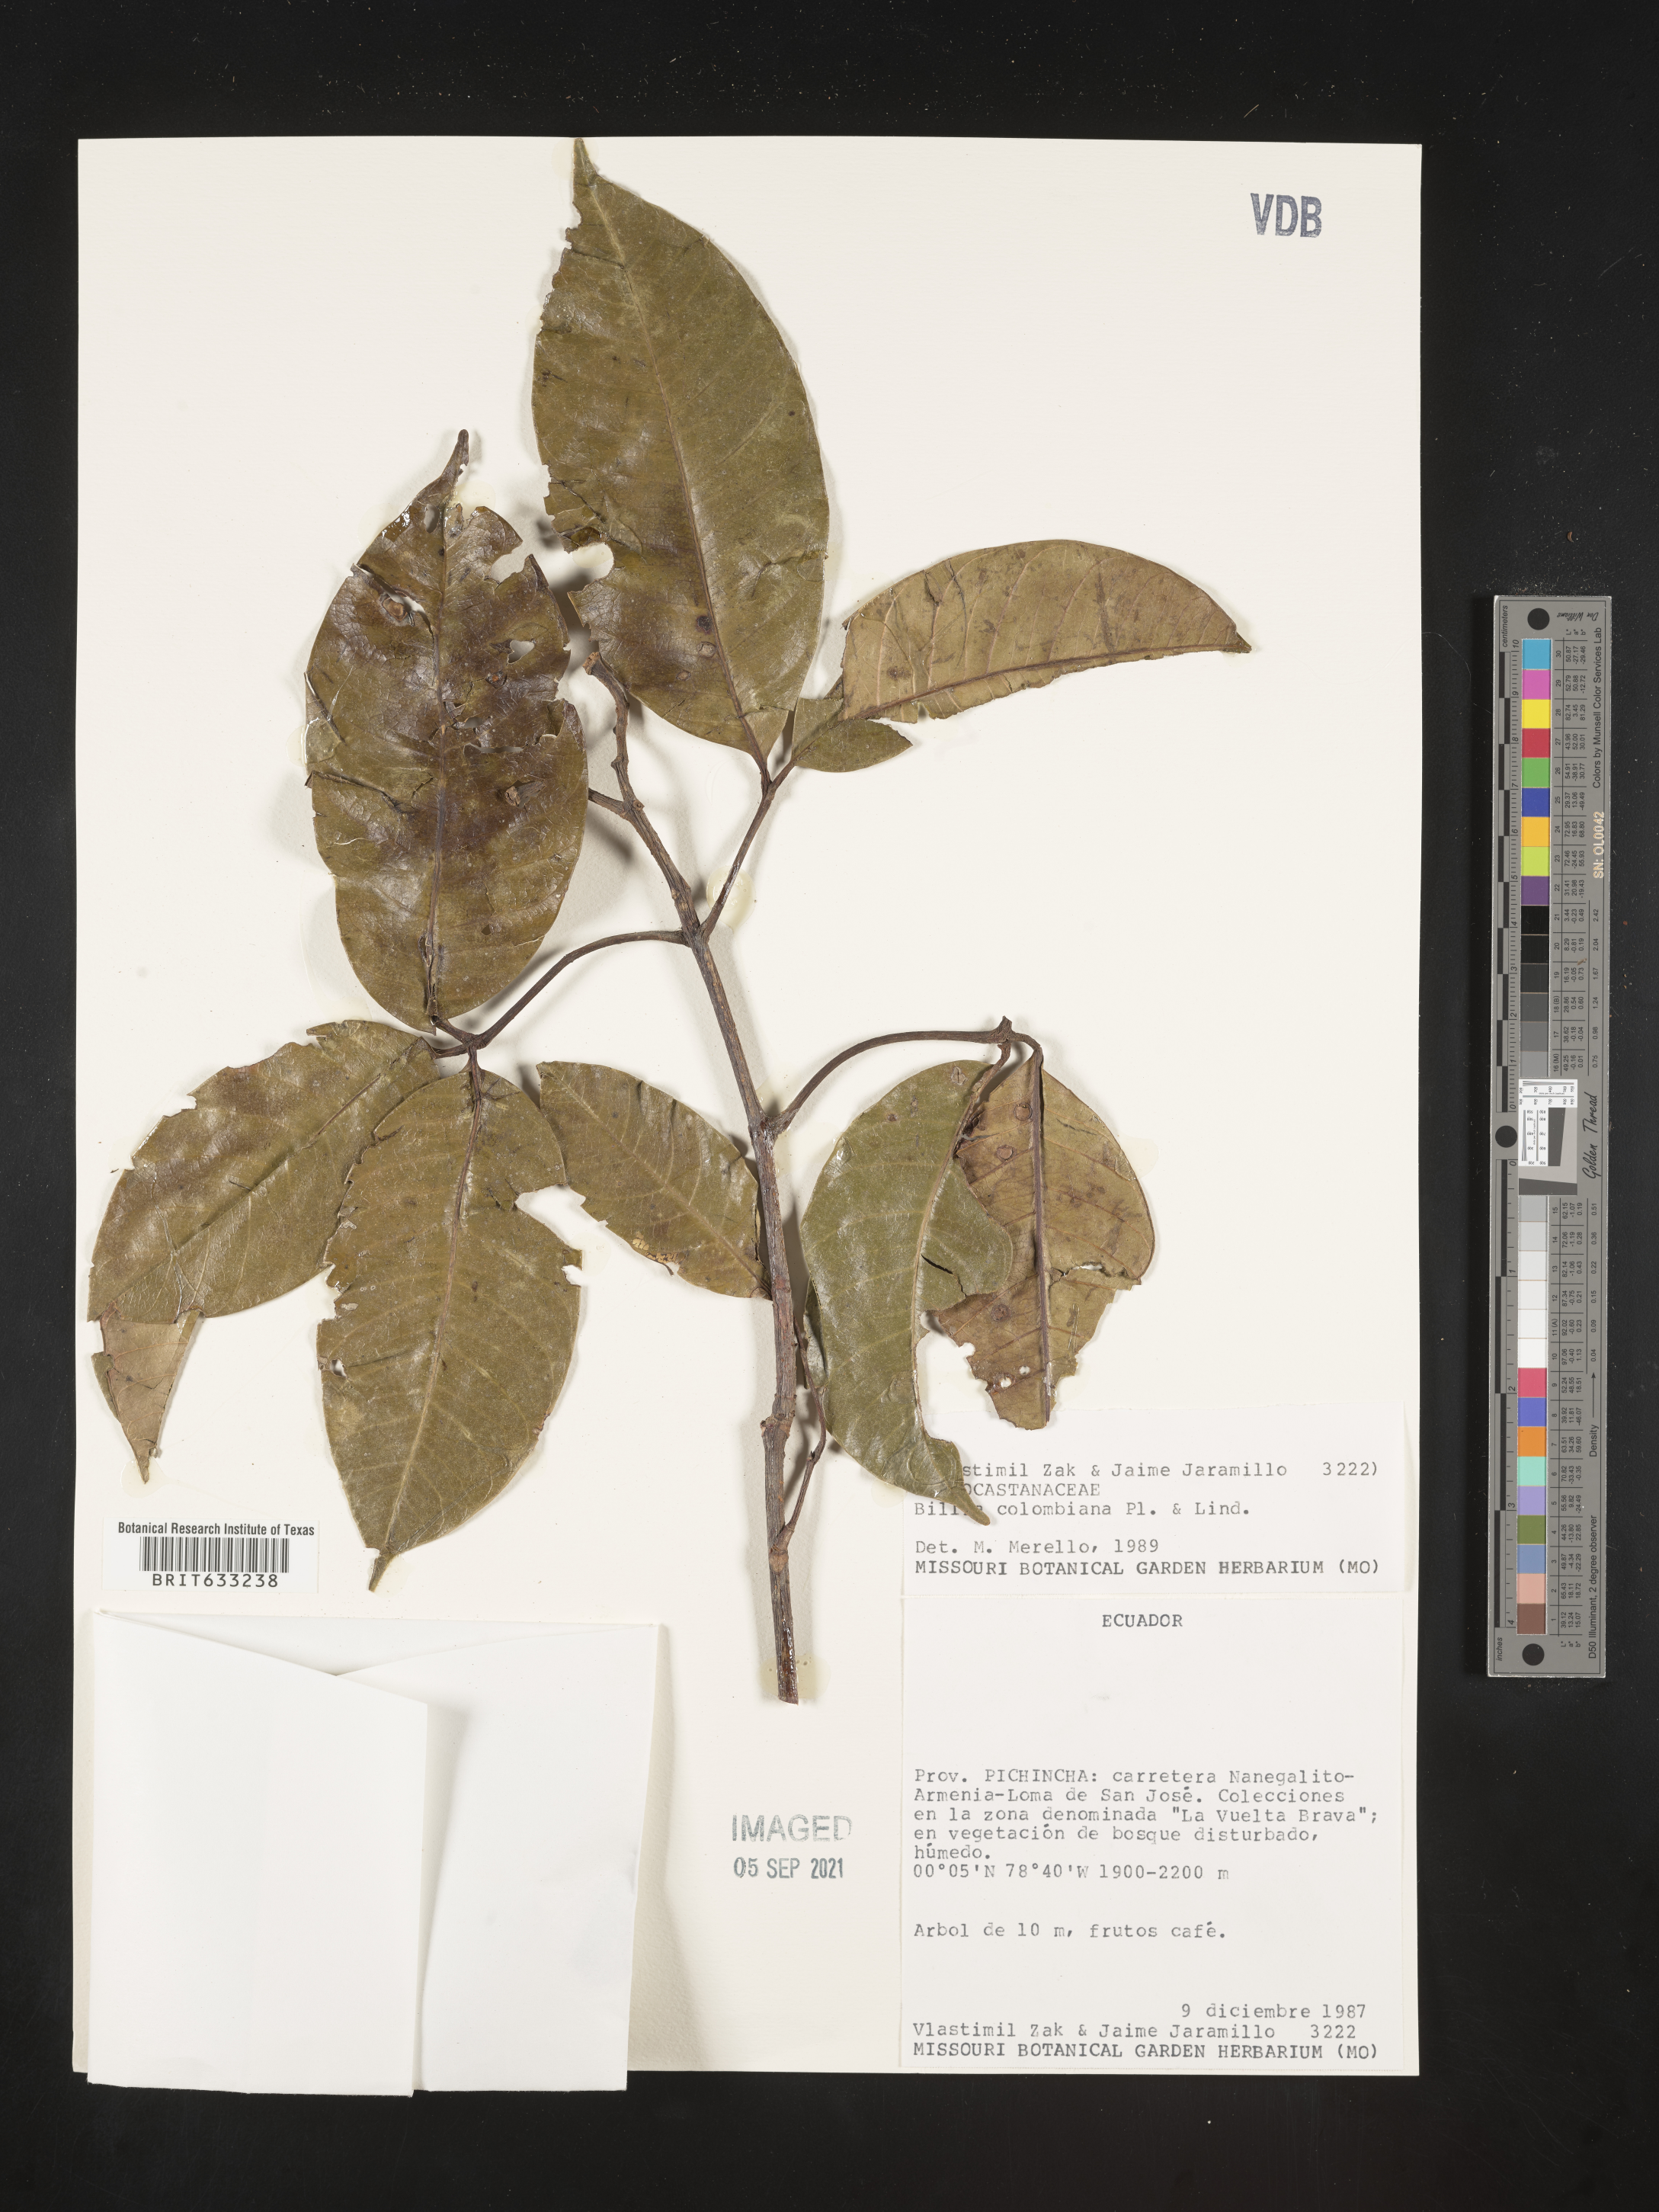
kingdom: Plantae
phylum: Tracheophyta
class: Magnoliopsida
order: Sapindales
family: Sapindaceae
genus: Billia
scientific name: Billia
